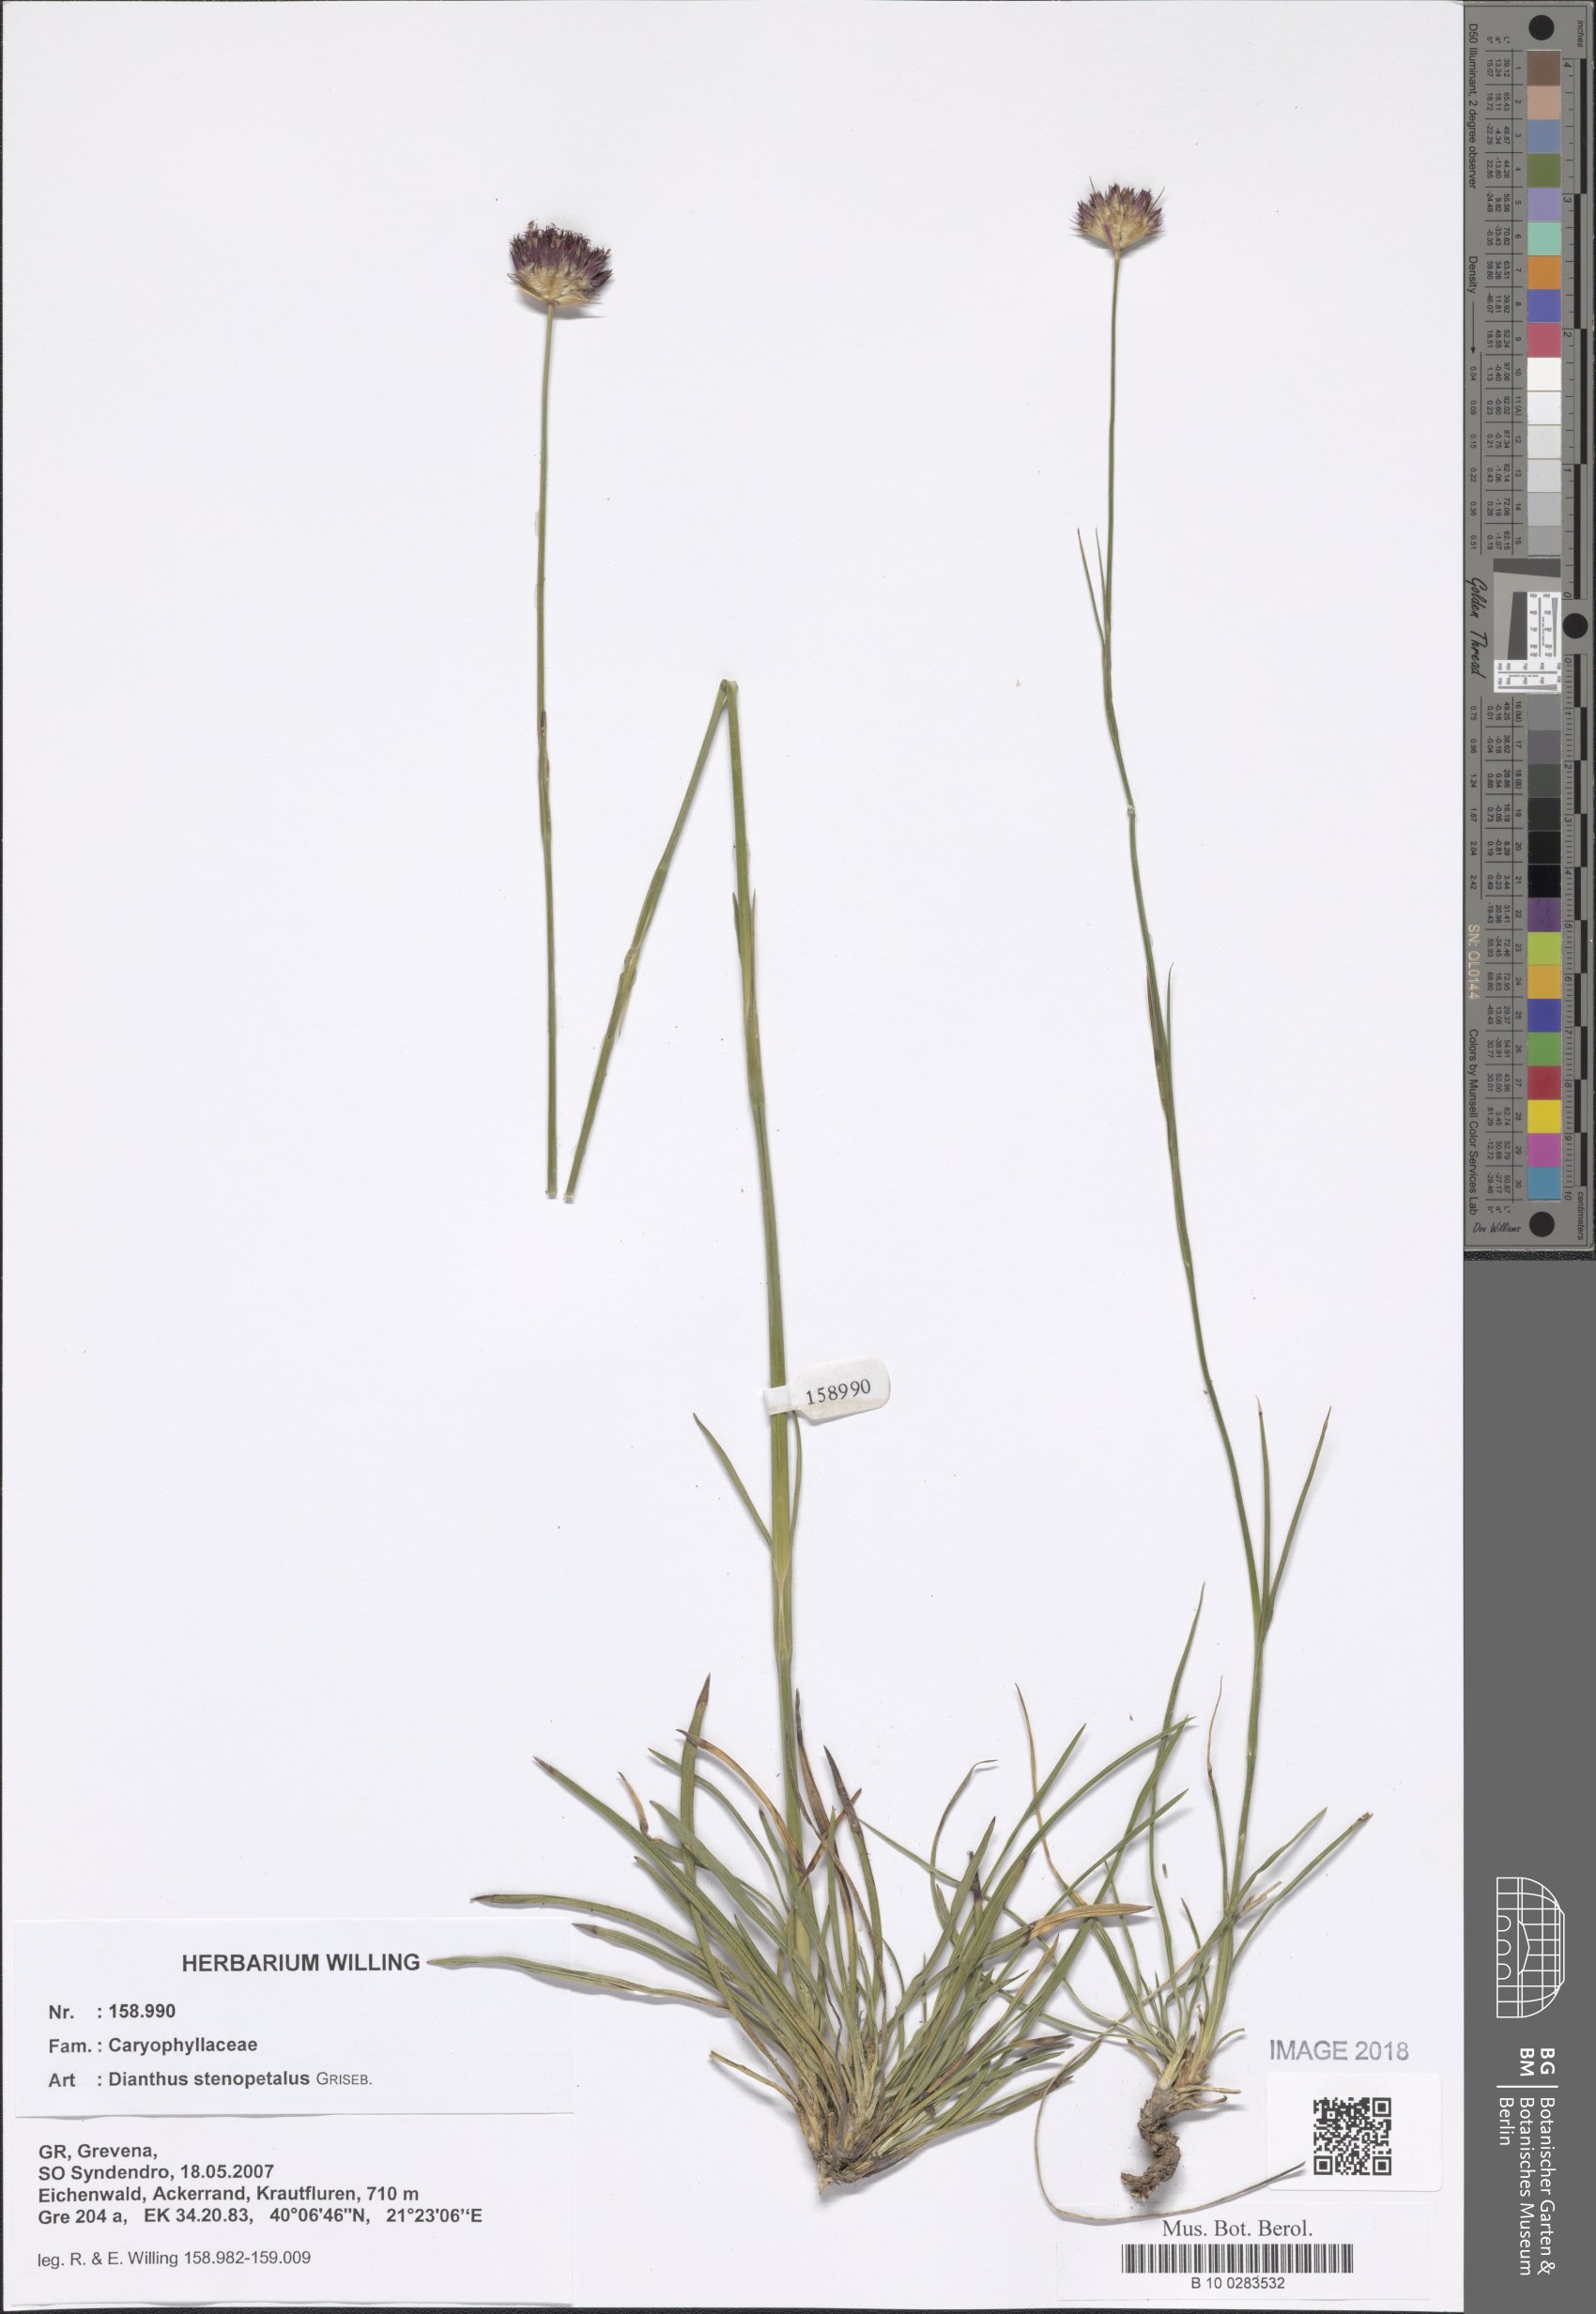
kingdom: Plantae
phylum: Tracheophyta
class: Magnoliopsida
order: Caryophyllales
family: Caryophyllaceae
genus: Dianthus
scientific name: Dianthus stenopetalus
